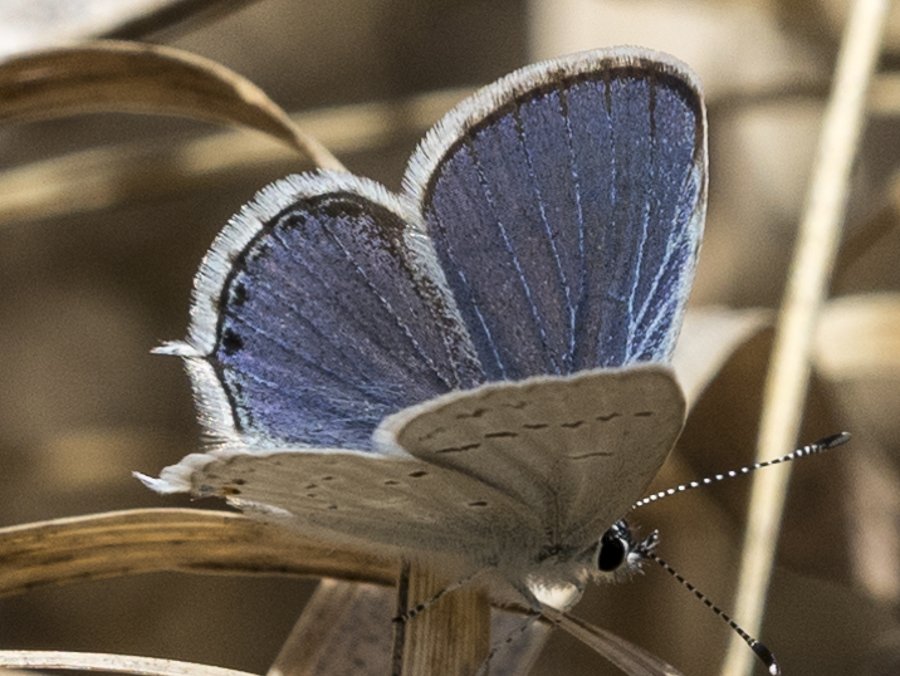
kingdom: Animalia
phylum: Arthropoda
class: Insecta
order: Lepidoptera
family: Lycaenidae
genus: Elkalyce
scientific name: Elkalyce amyntula
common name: Western Tailed-Blue
